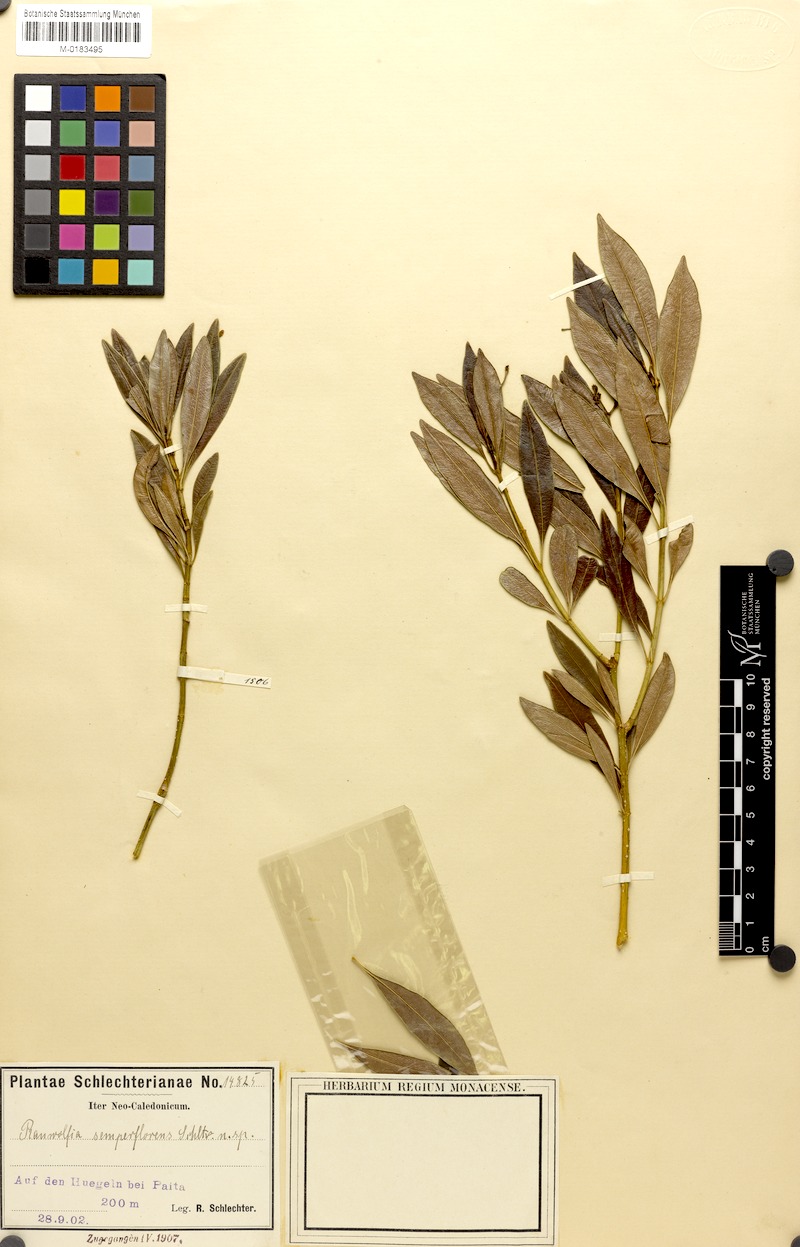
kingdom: Plantae
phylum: Tracheophyta
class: Magnoliopsida
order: Gentianales
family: Apocynaceae
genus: Rauvolfia
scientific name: Rauvolfia semperflorens
